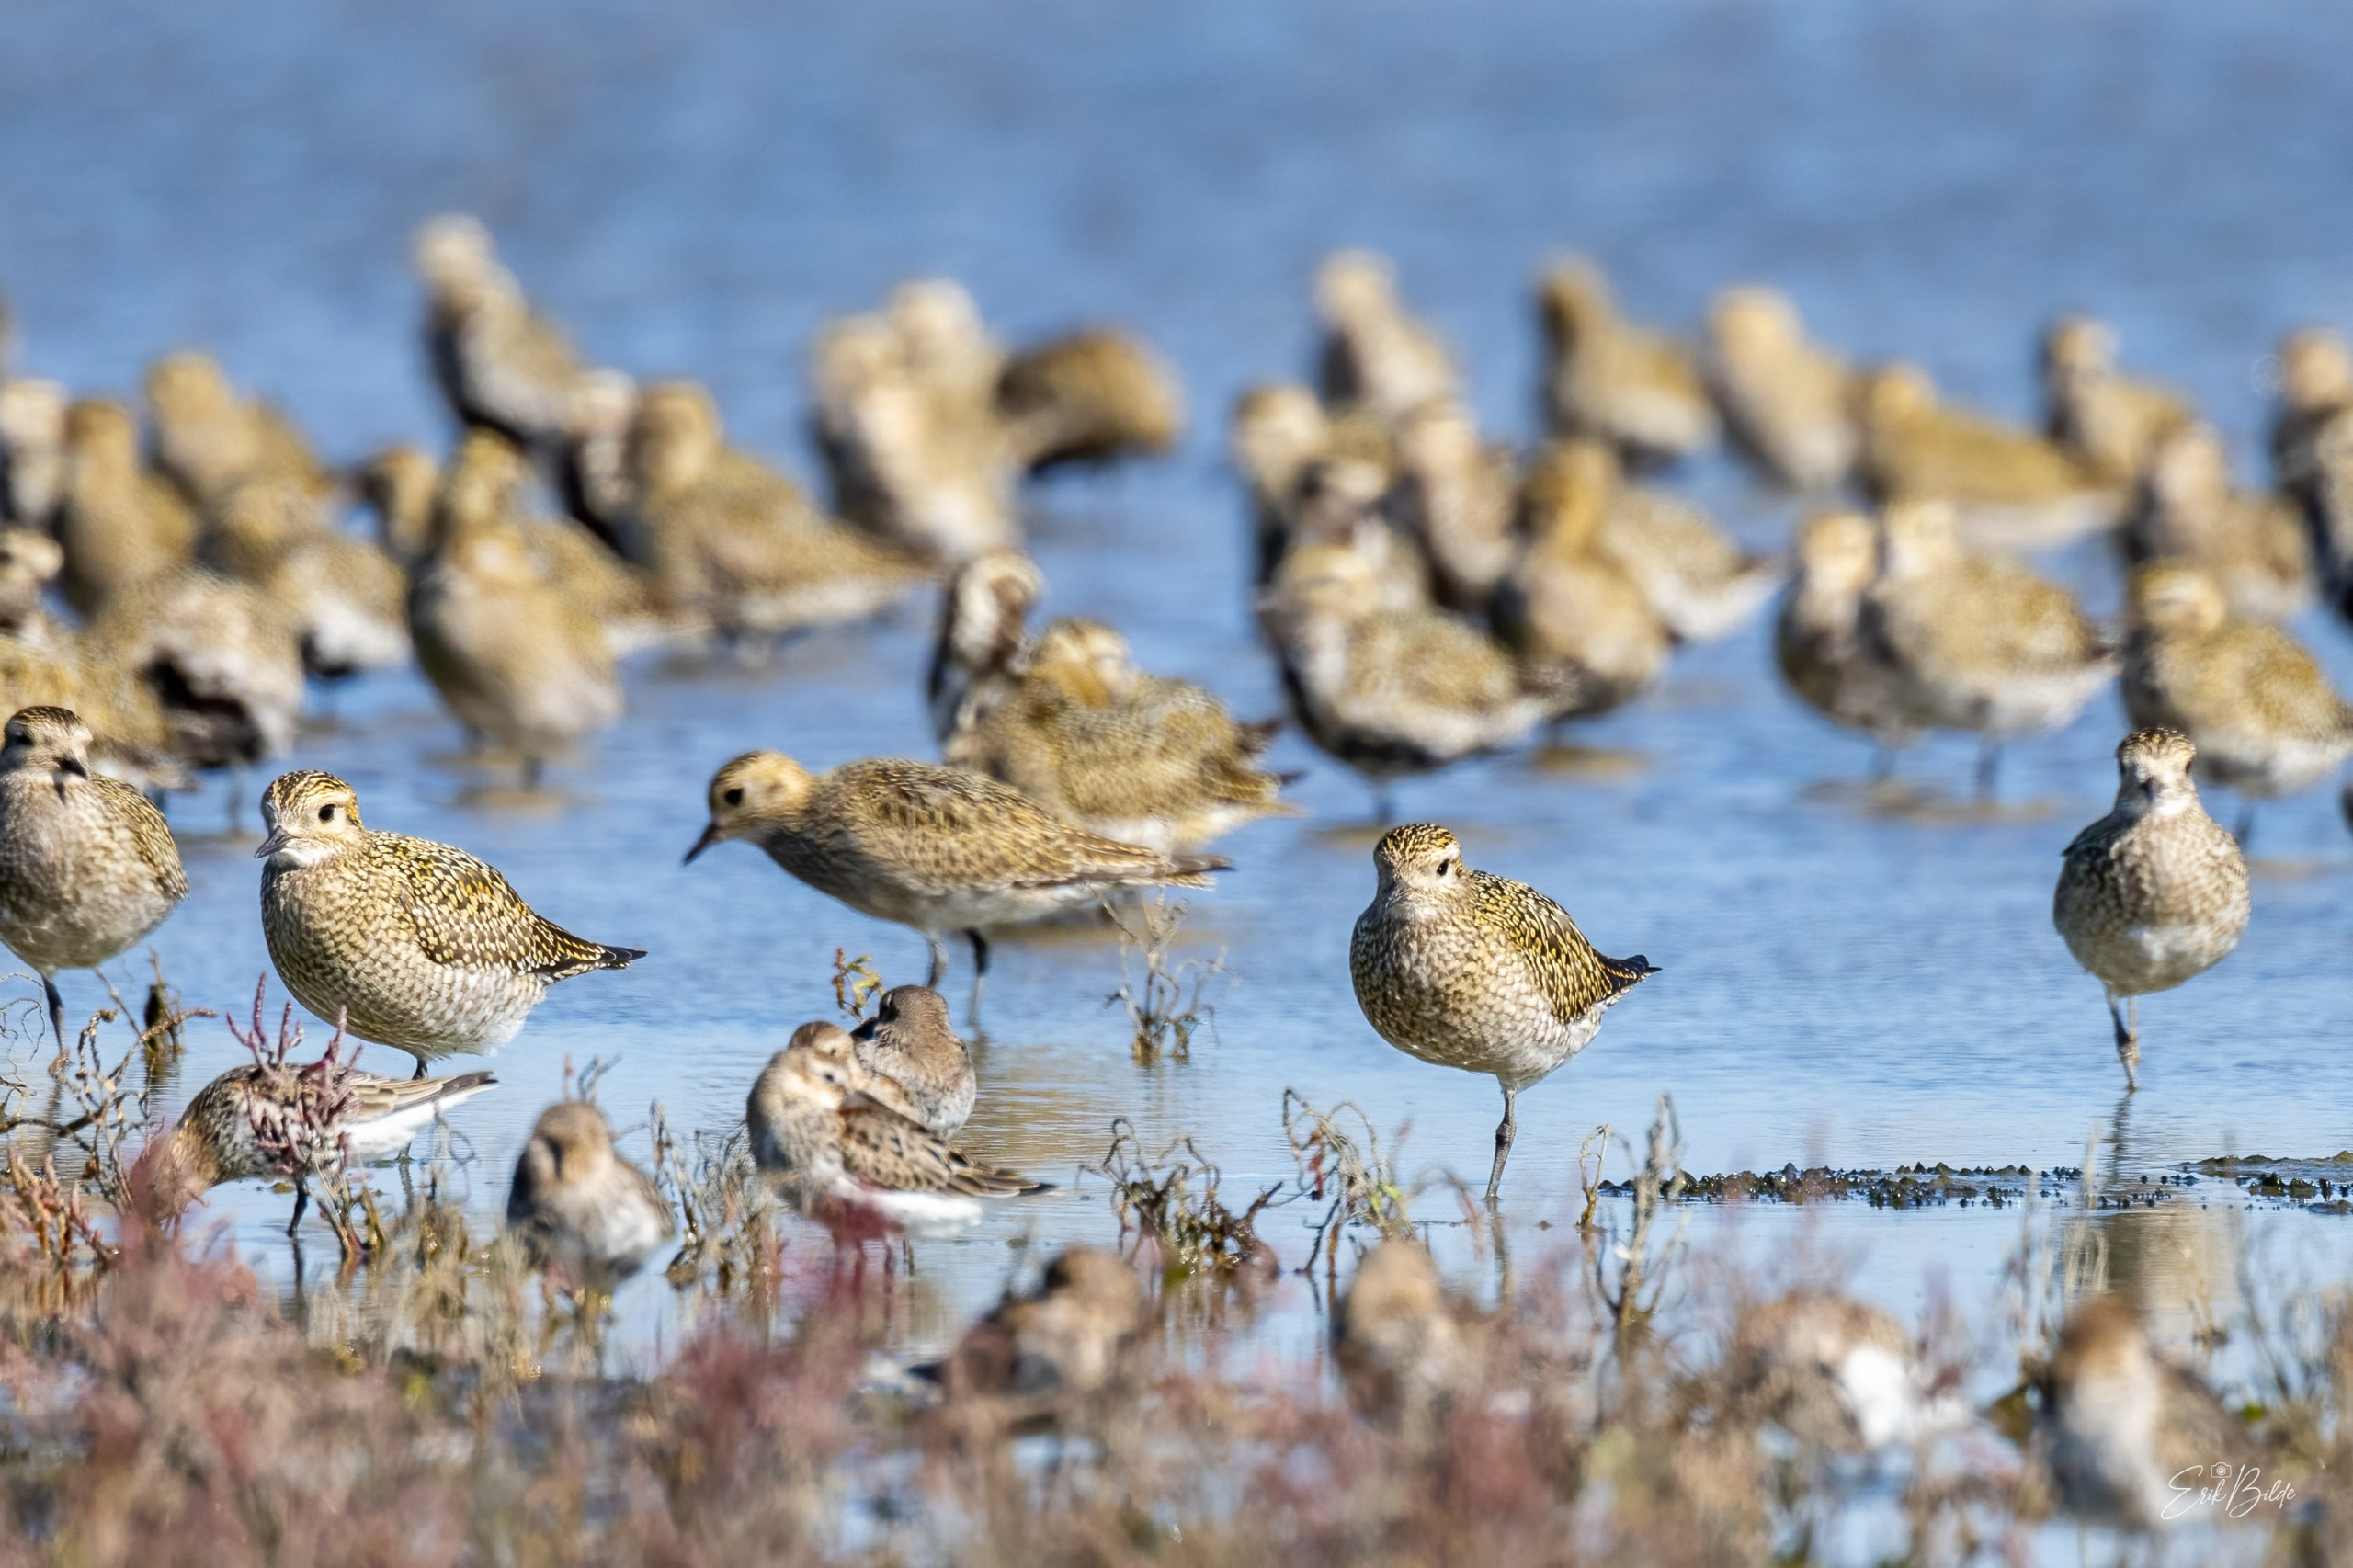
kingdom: Animalia
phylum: Chordata
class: Aves
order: Charadriiformes
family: Charadriidae
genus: Pluvialis
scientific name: Pluvialis apricaria
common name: Hjejle
